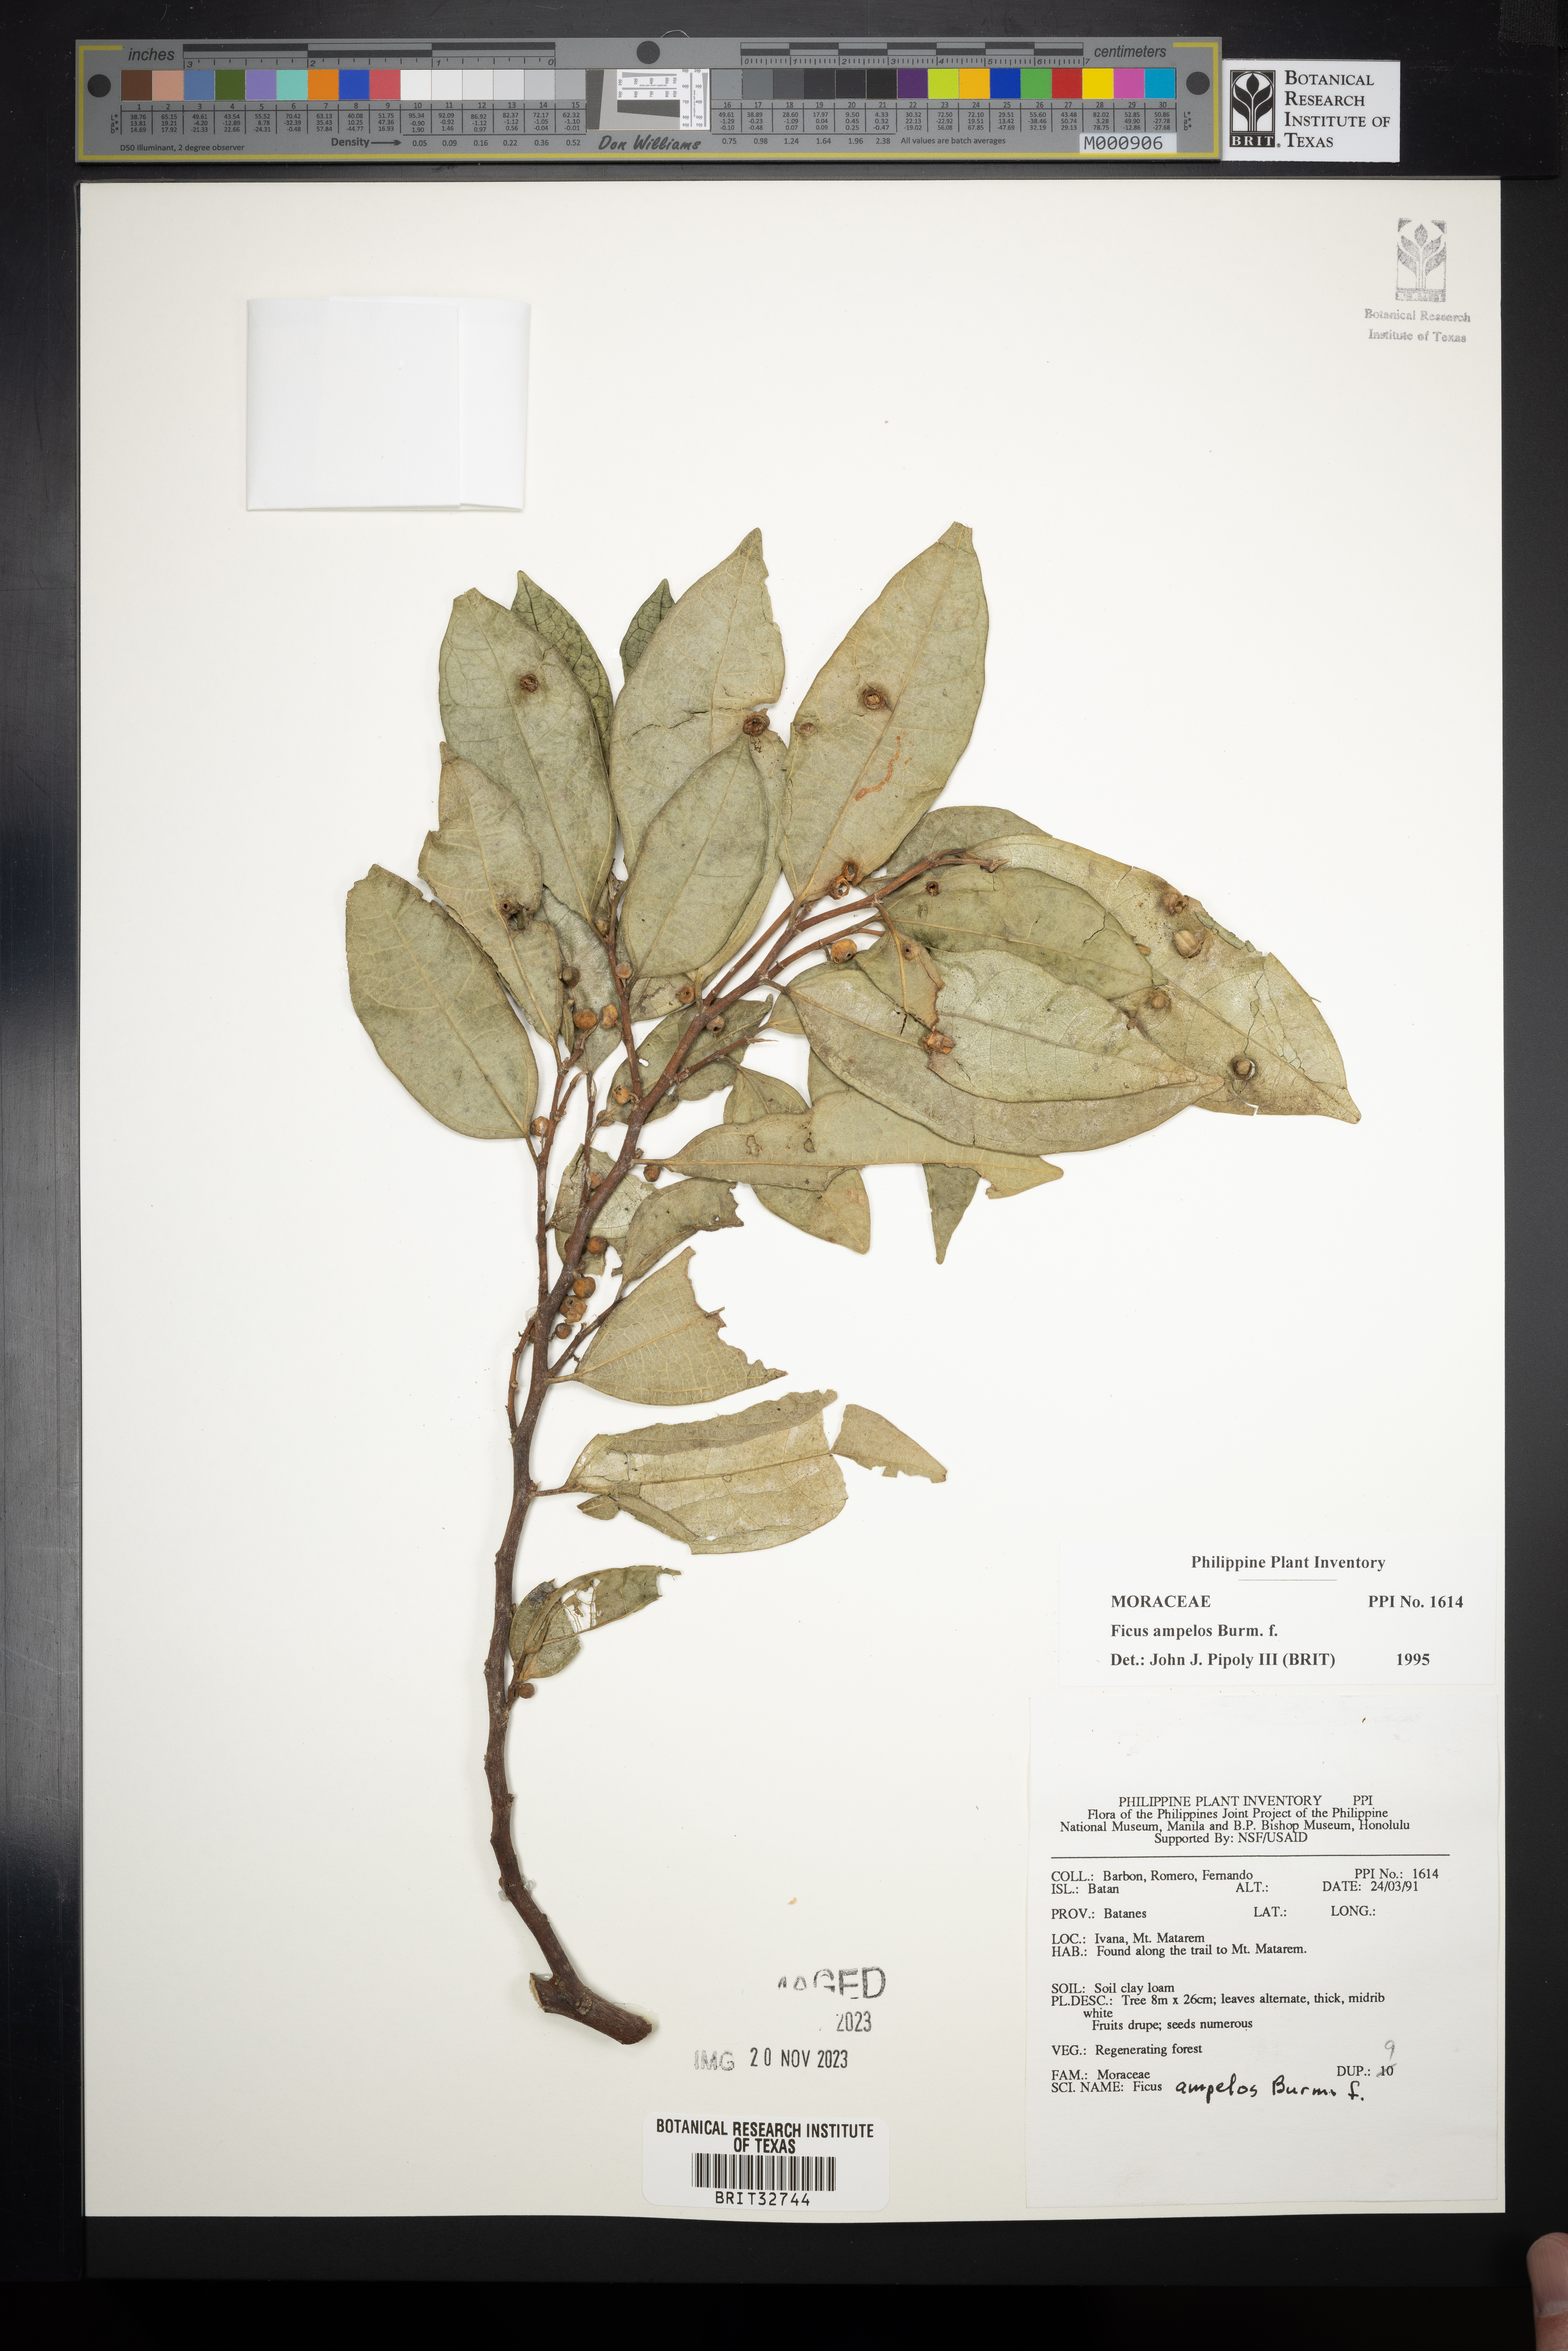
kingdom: Plantae
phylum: Tracheophyta
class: Magnoliopsida
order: Rosales
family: Moraceae
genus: Ficus
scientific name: Ficus ampelos
